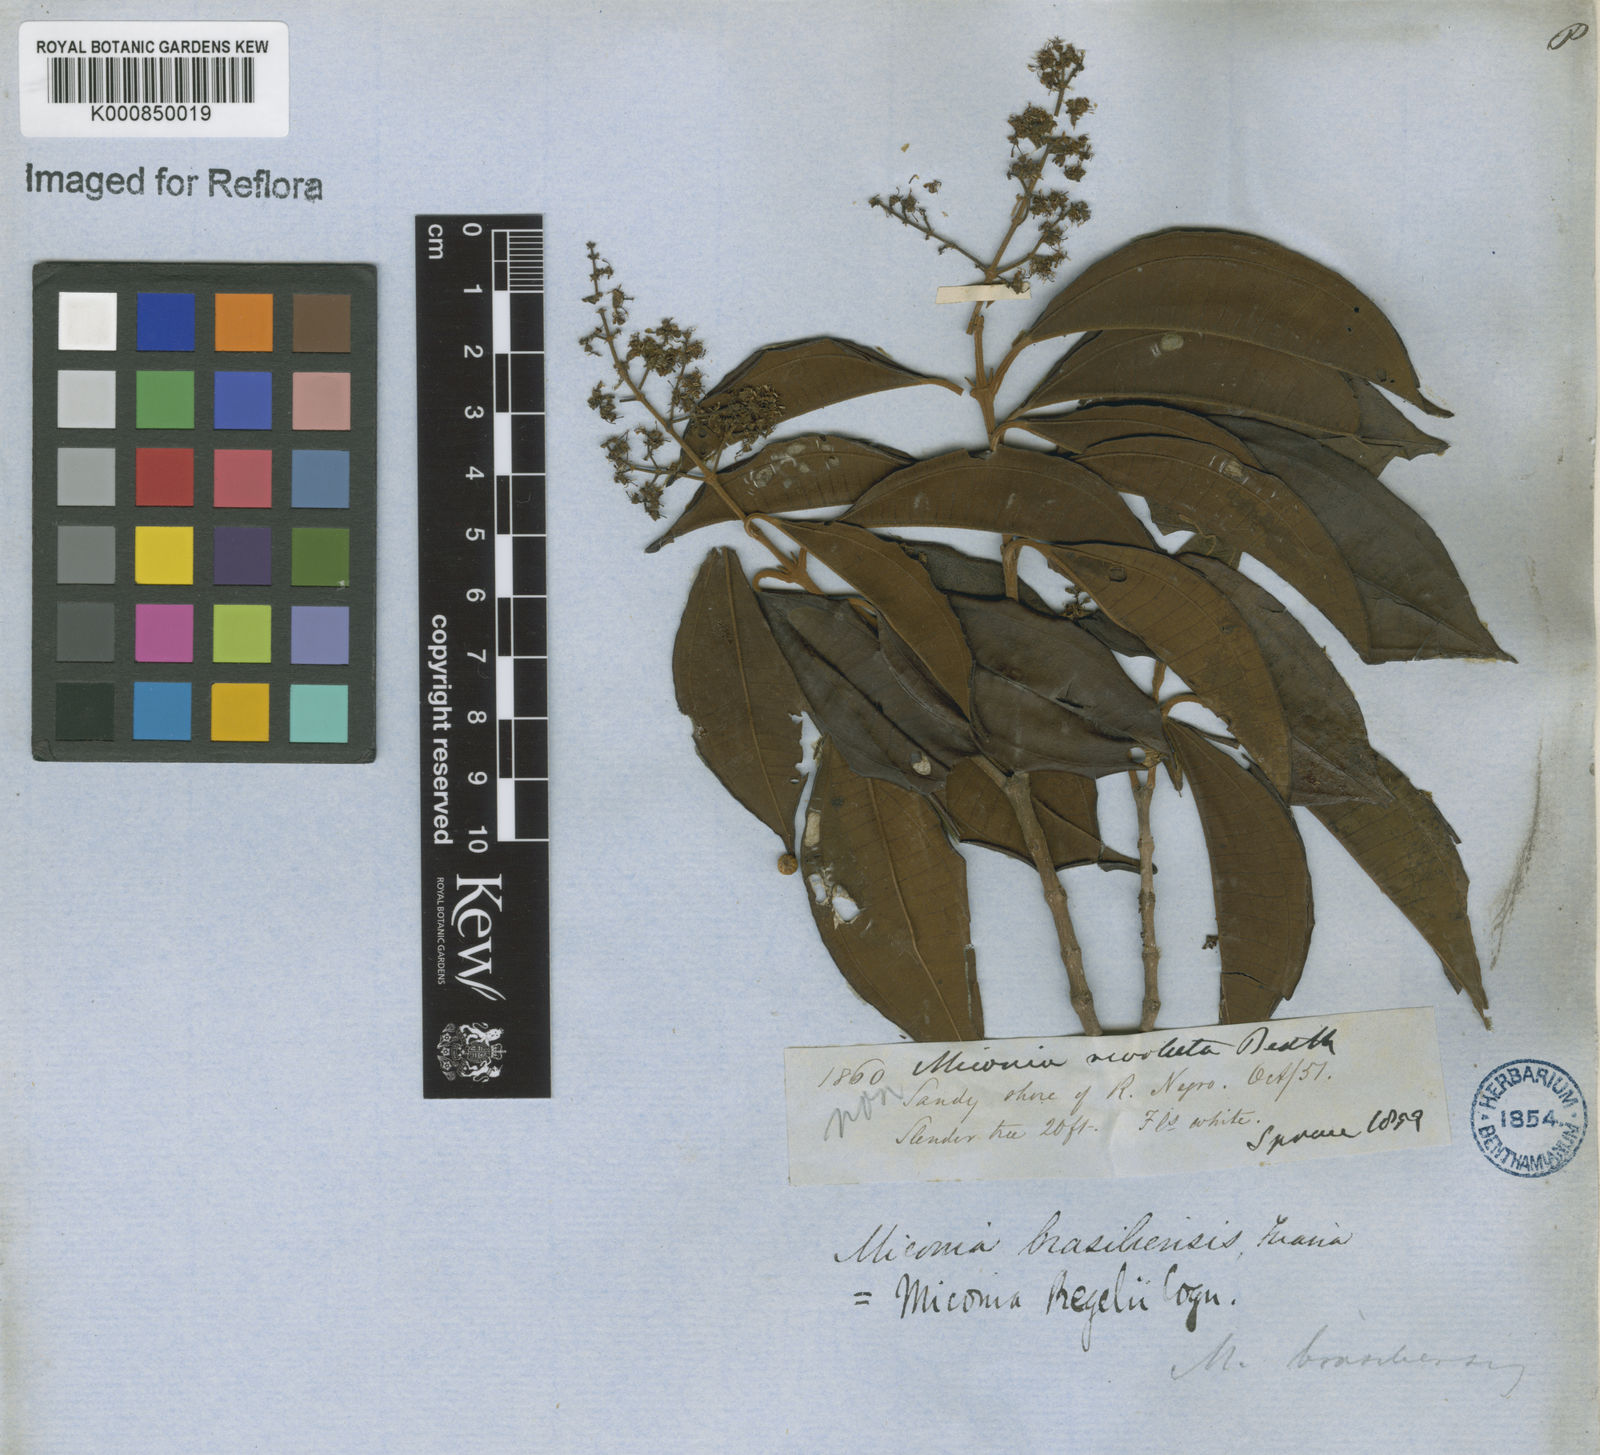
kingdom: Plantae
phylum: Tracheophyta
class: Magnoliopsida
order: Myrtales
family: Melastomataceae
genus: Miconia
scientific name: Miconia regelii
